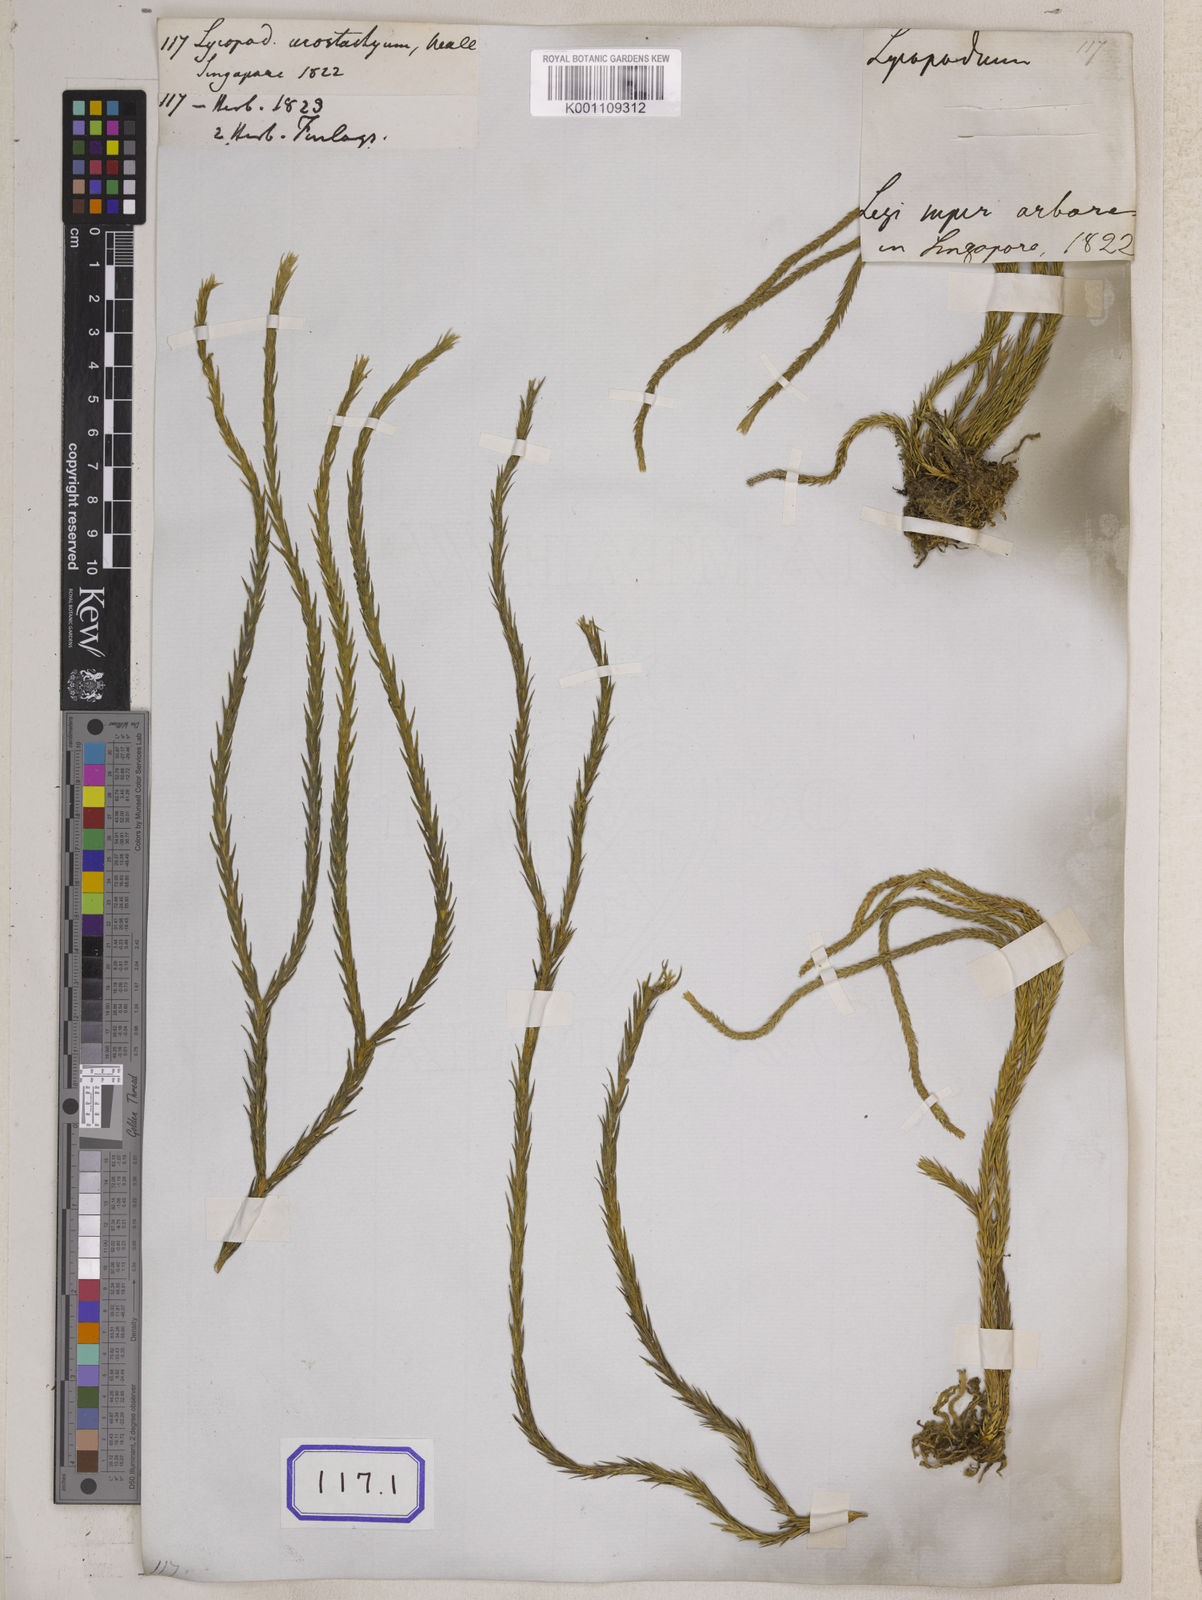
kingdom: Plantae
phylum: Tracheophyta
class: Lycopodiopsida
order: Lycopodiales
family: Lycopodiaceae
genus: Phlegmariurus
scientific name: Phlegmariurus carinatus
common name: Keeled tassel-fern
